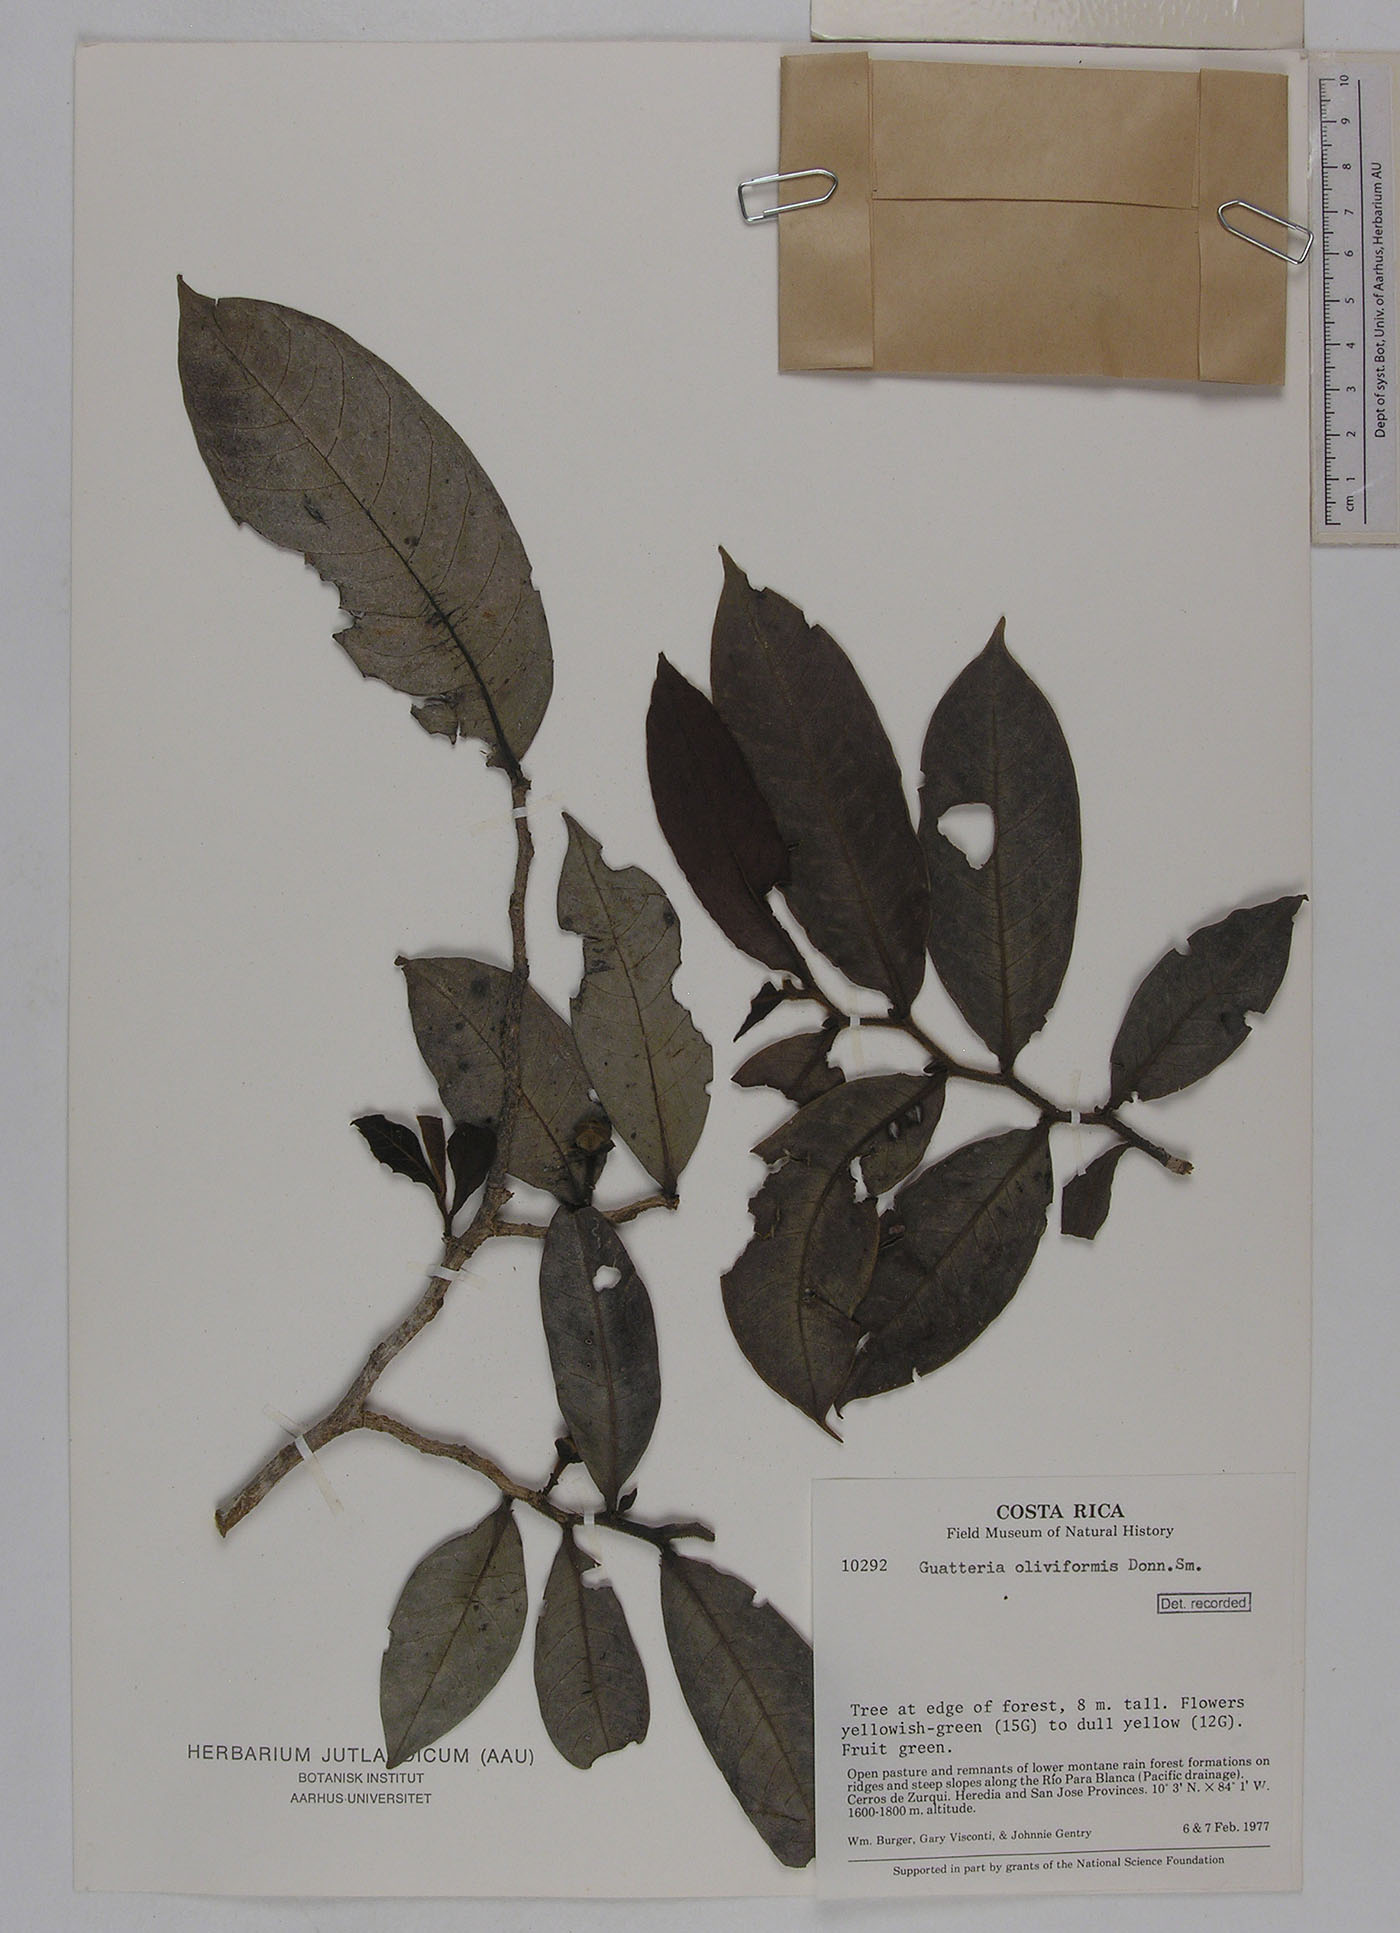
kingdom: Plantae
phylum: Tracheophyta
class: Magnoliopsida
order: Magnoliales
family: Annonaceae
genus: Guatteria
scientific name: Guatteria oliviformis
